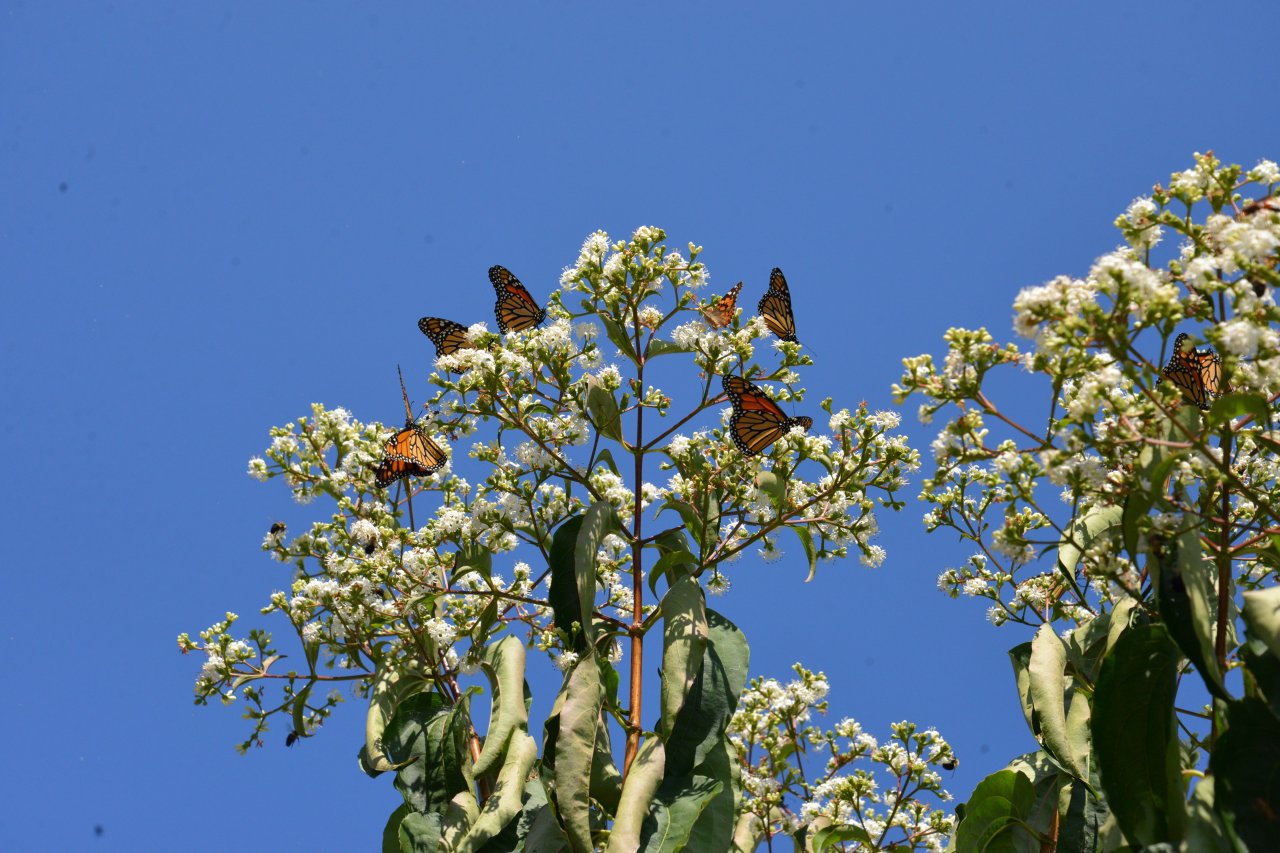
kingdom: Animalia
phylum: Arthropoda
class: Insecta
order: Lepidoptera
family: Nymphalidae
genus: Danaus
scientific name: Danaus plexippus
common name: Monarch
